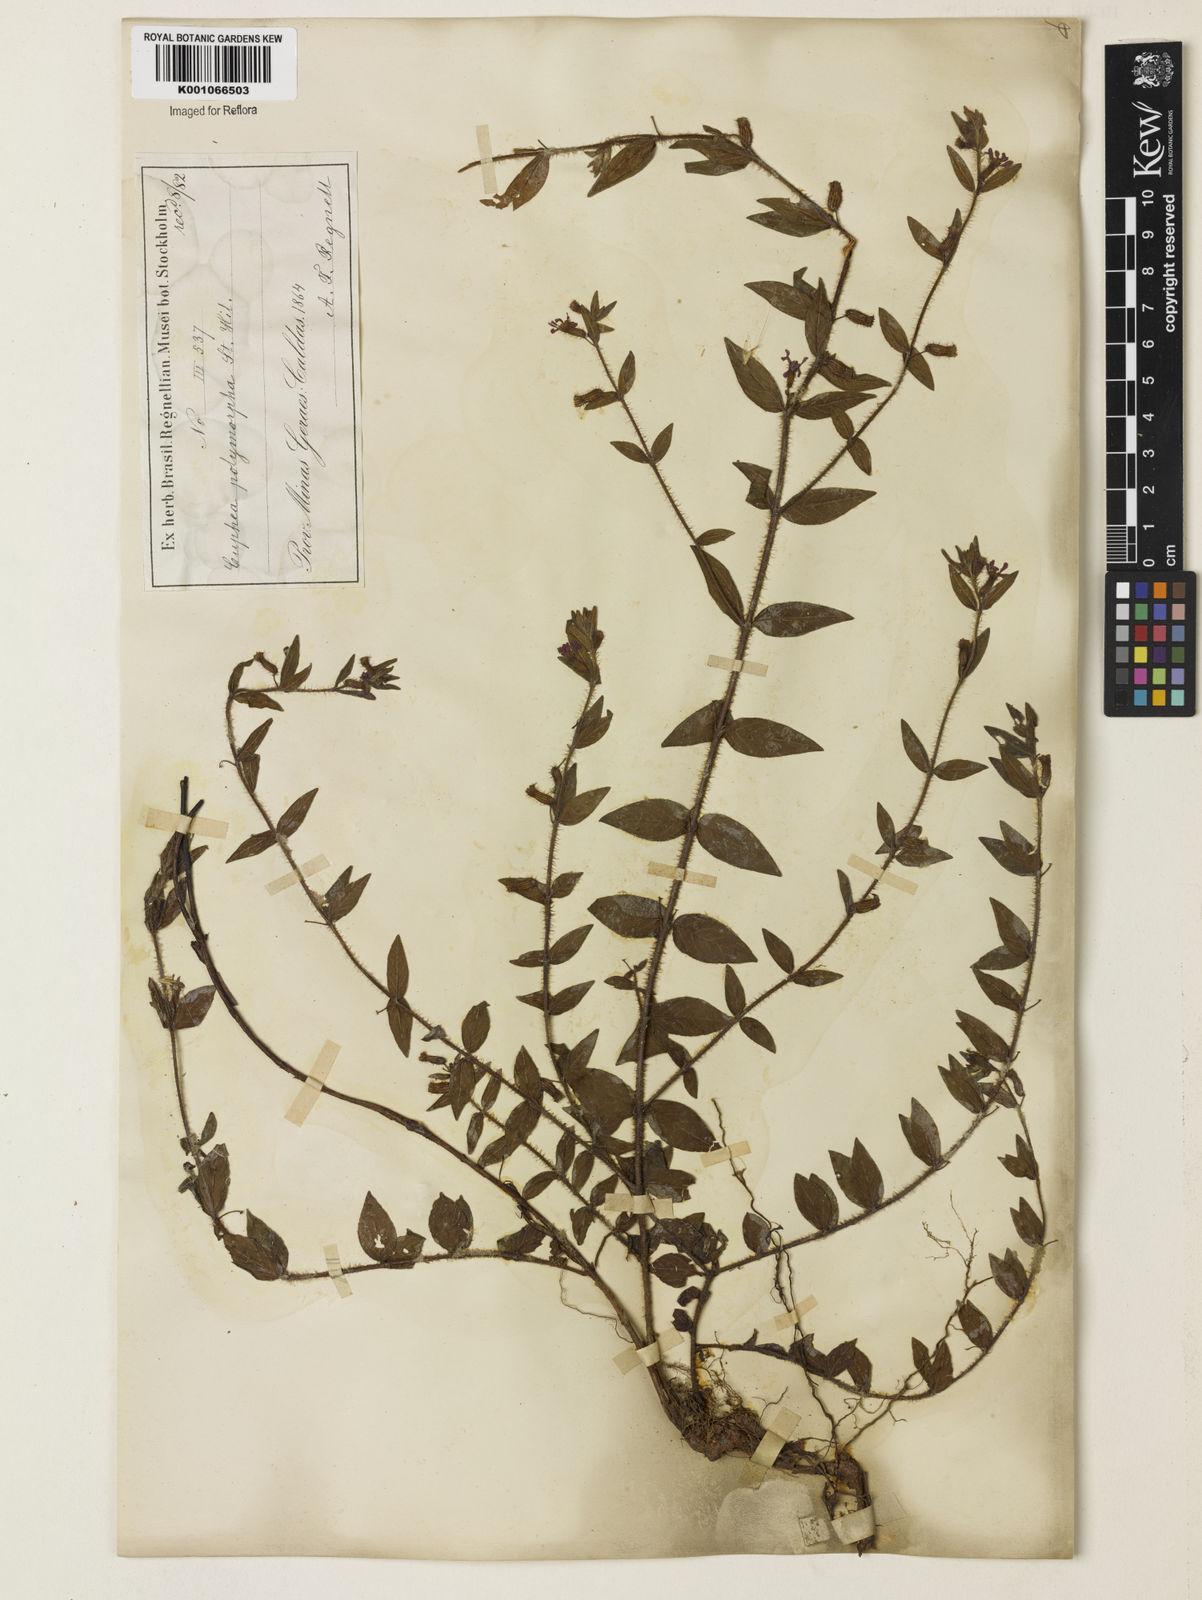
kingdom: Plantae
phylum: Tracheophyta
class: Magnoliopsida
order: Myrtales
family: Lythraceae
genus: Cuphea
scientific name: Cuphea polymorpha
